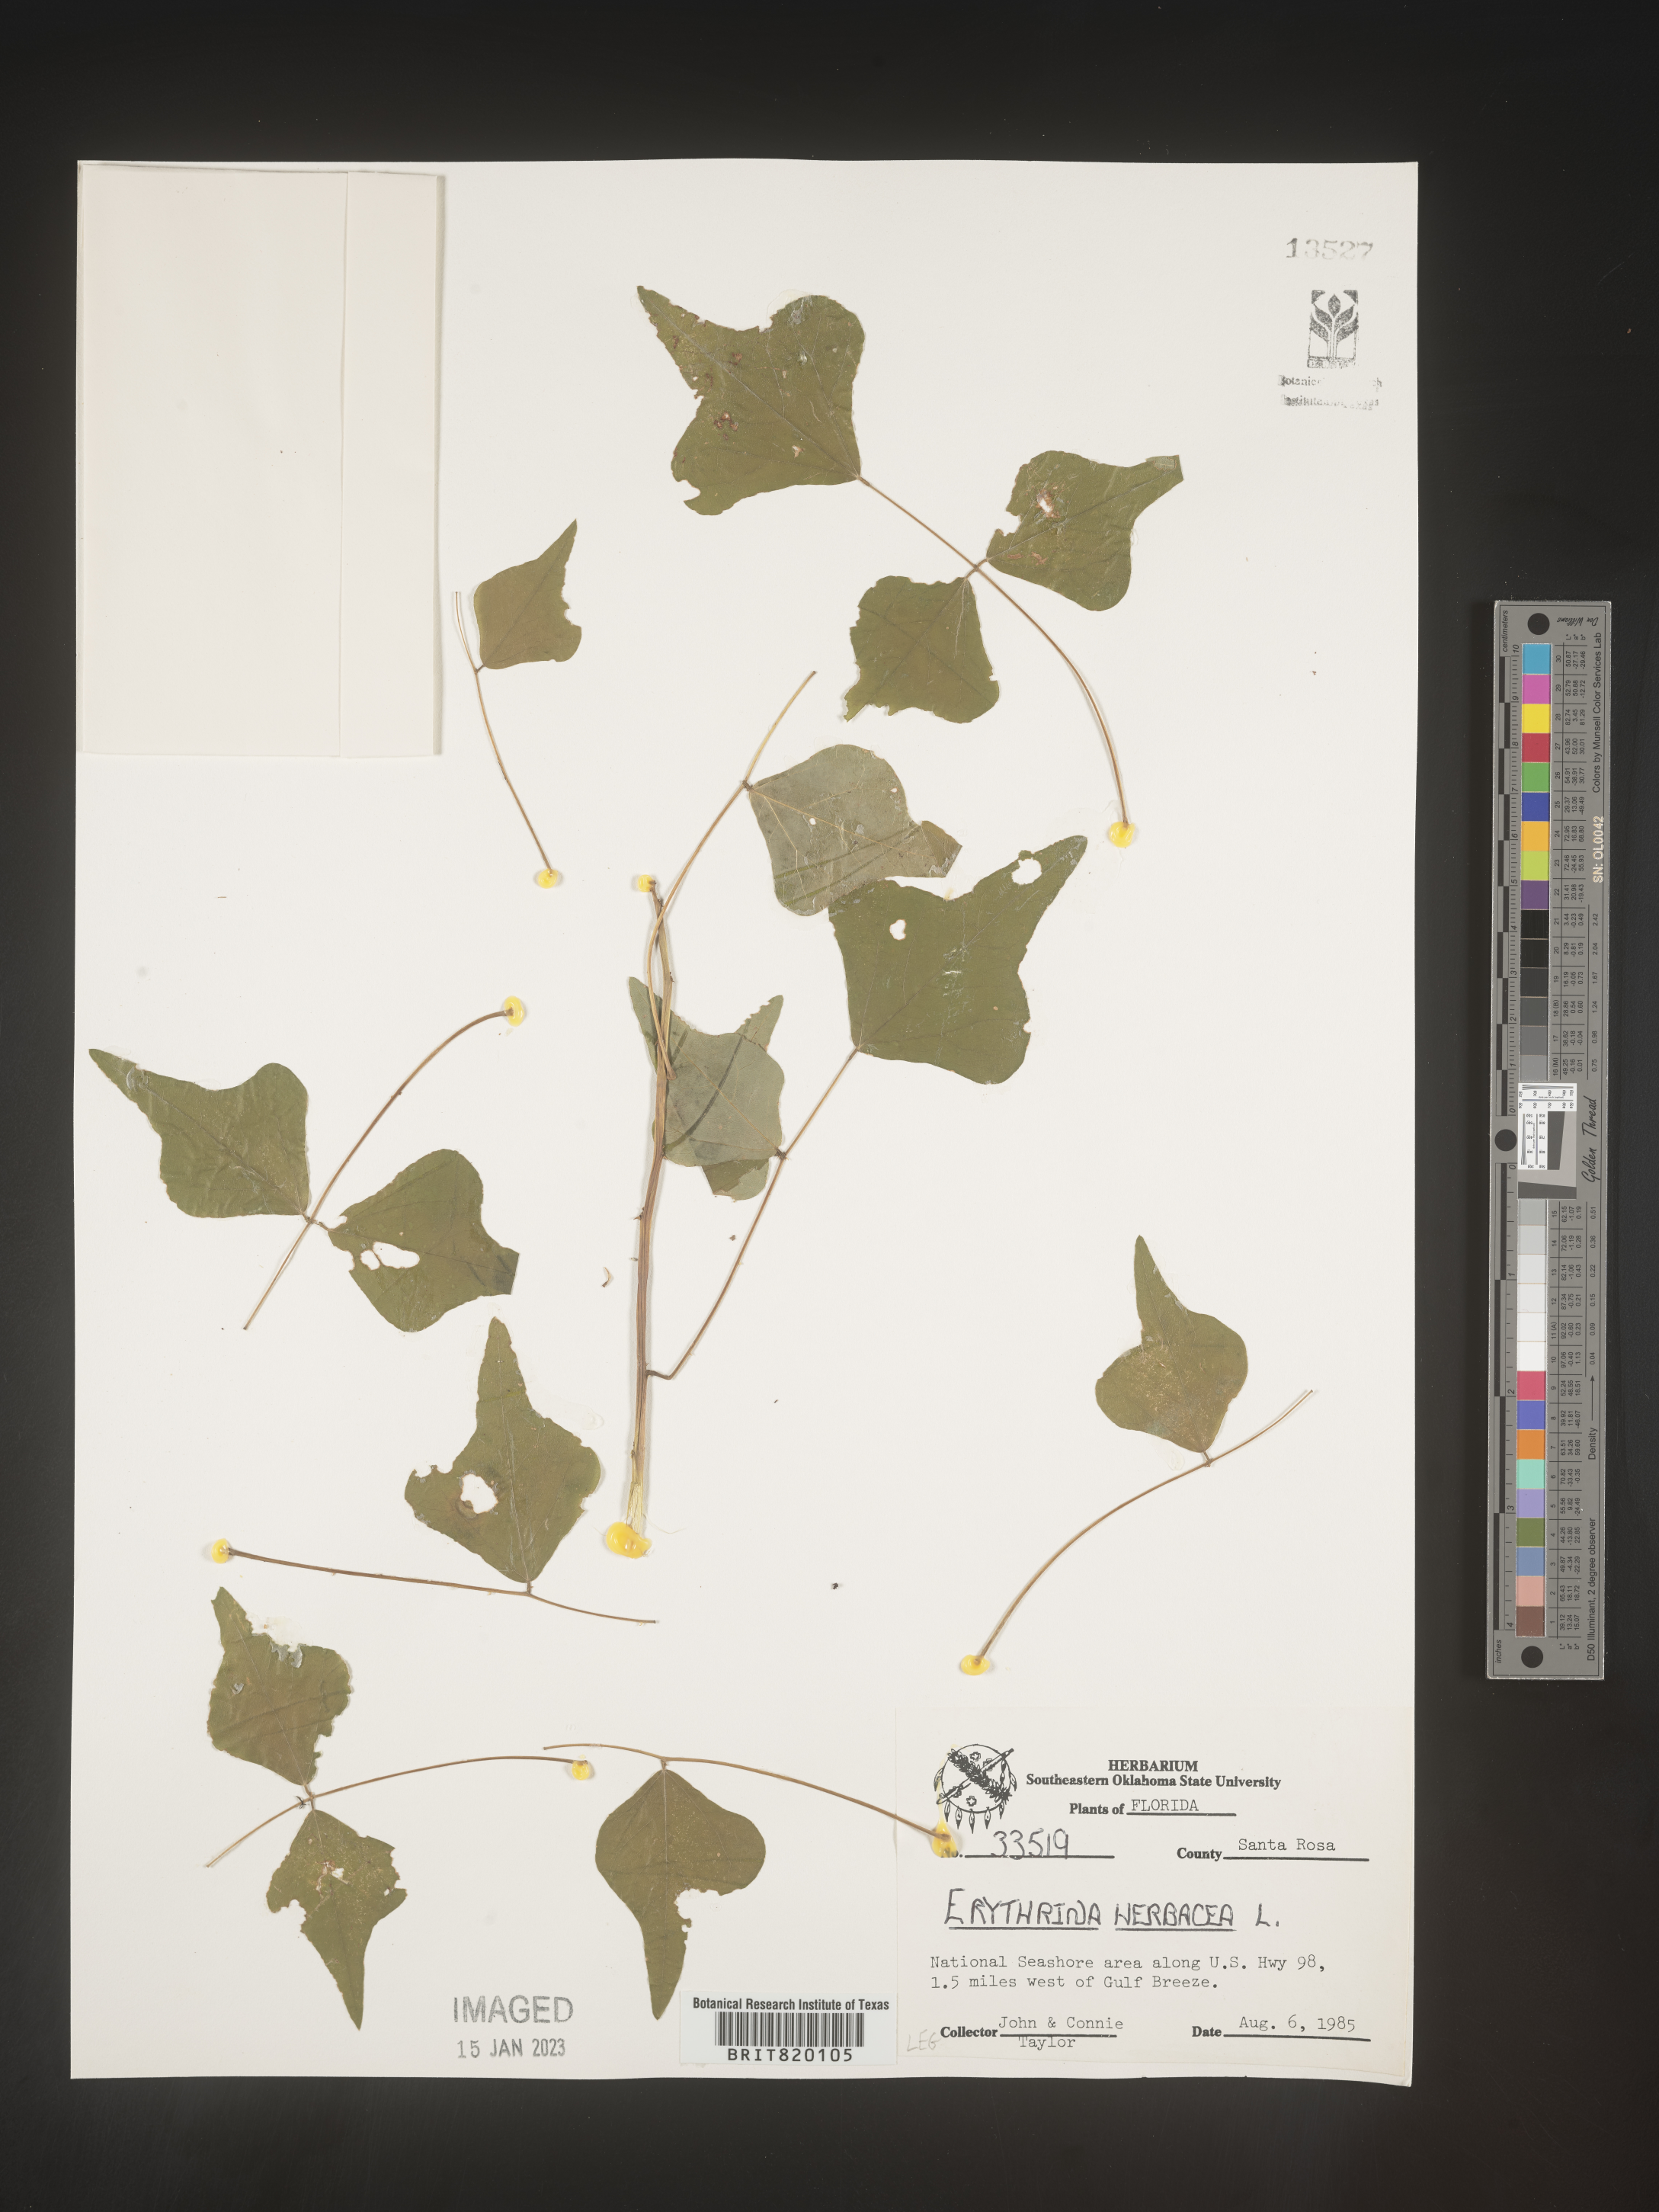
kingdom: Plantae
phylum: Tracheophyta
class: Magnoliopsida
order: Fabales
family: Fabaceae
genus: Erythrina
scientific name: Erythrina herbacea
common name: Coral-bean
